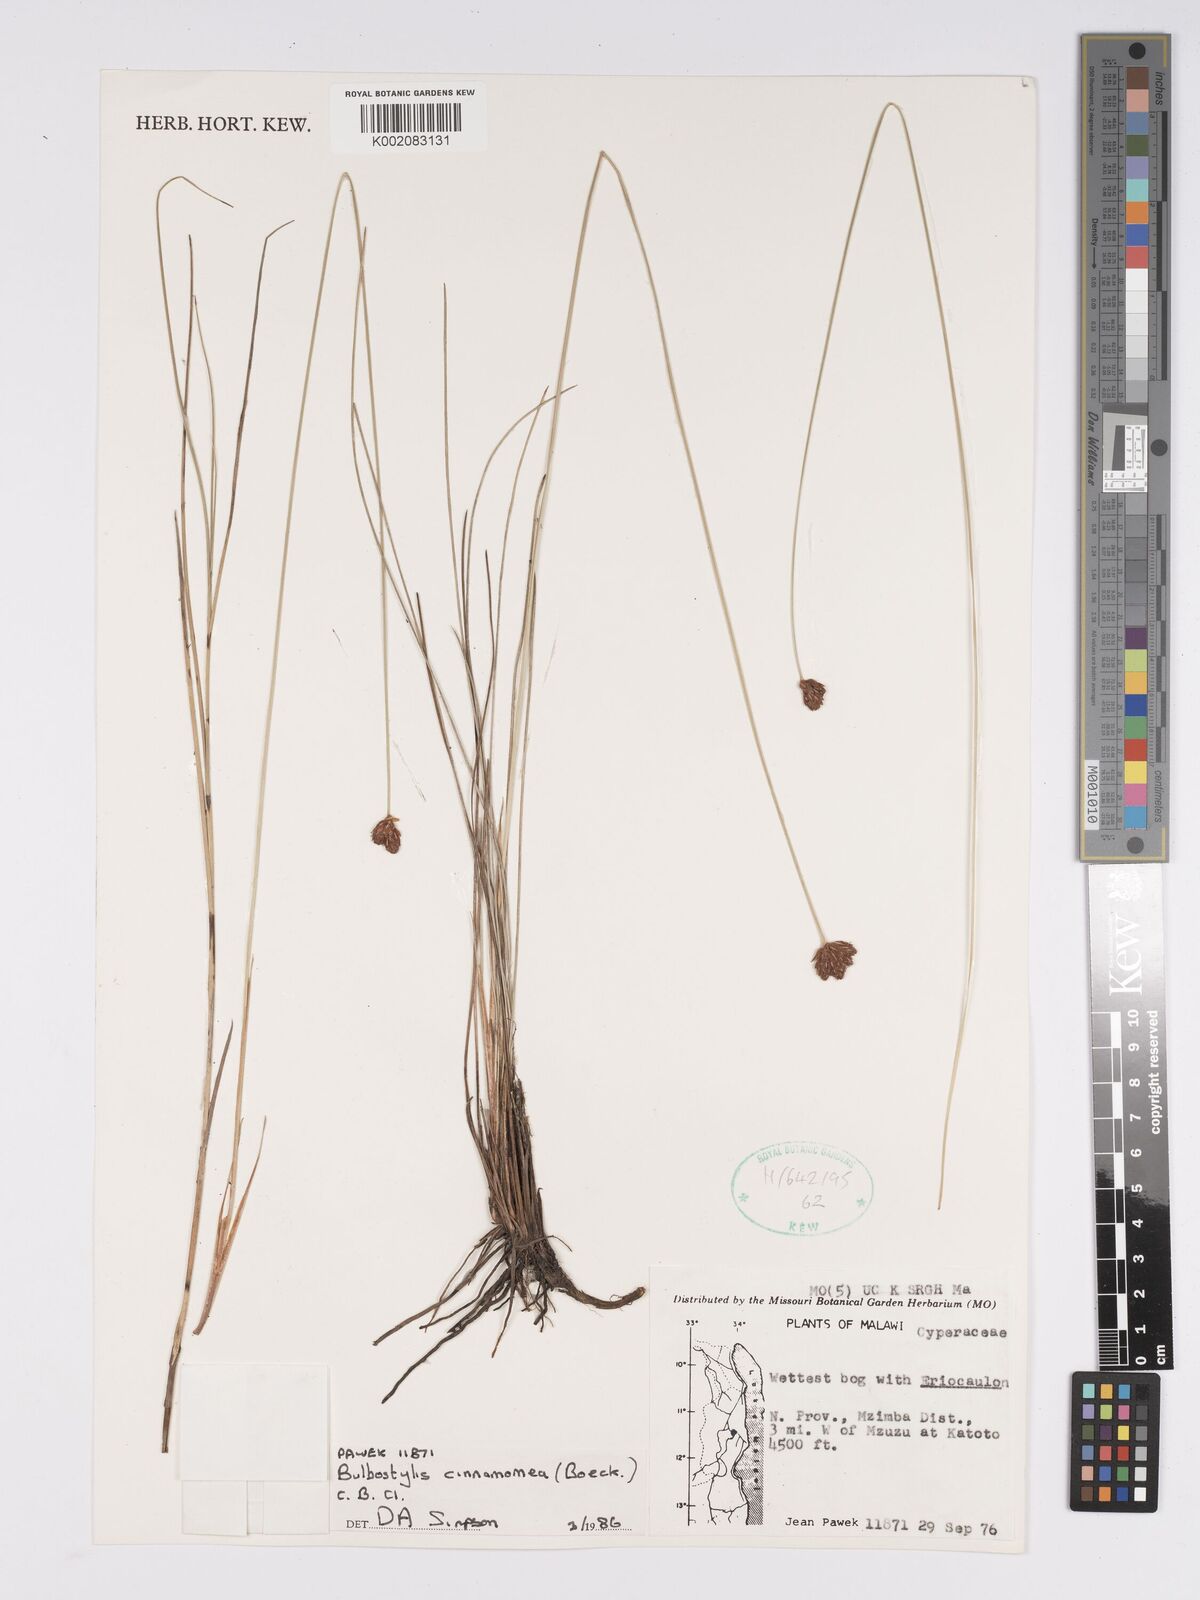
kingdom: Plantae
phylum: Tracheophyta
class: Liliopsida
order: Poales
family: Cyperaceae
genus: Bulbostylis
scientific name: Bulbostylis schoenoides
